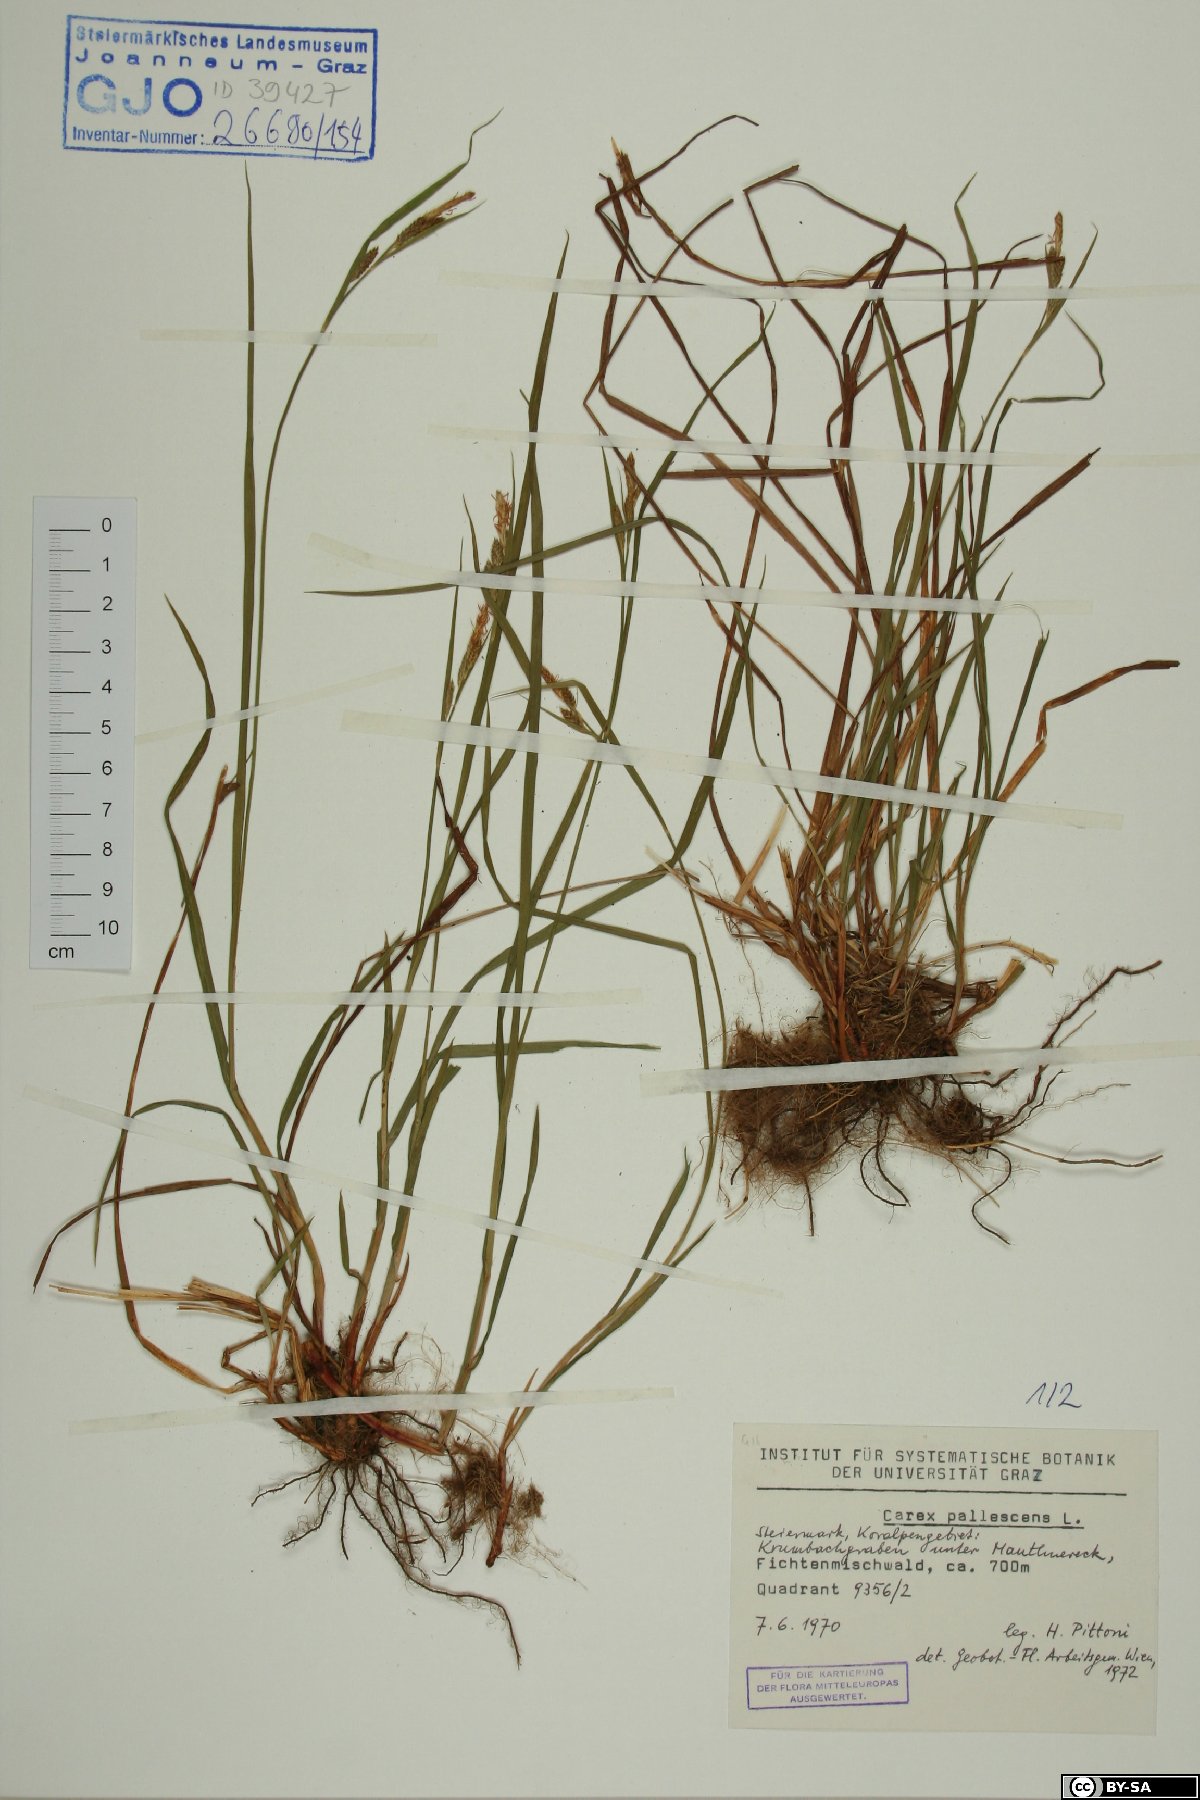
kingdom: Plantae
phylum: Tracheophyta
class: Liliopsida
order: Poales
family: Cyperaceae
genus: Carex
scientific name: Carex pallescens
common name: Pale sedge
